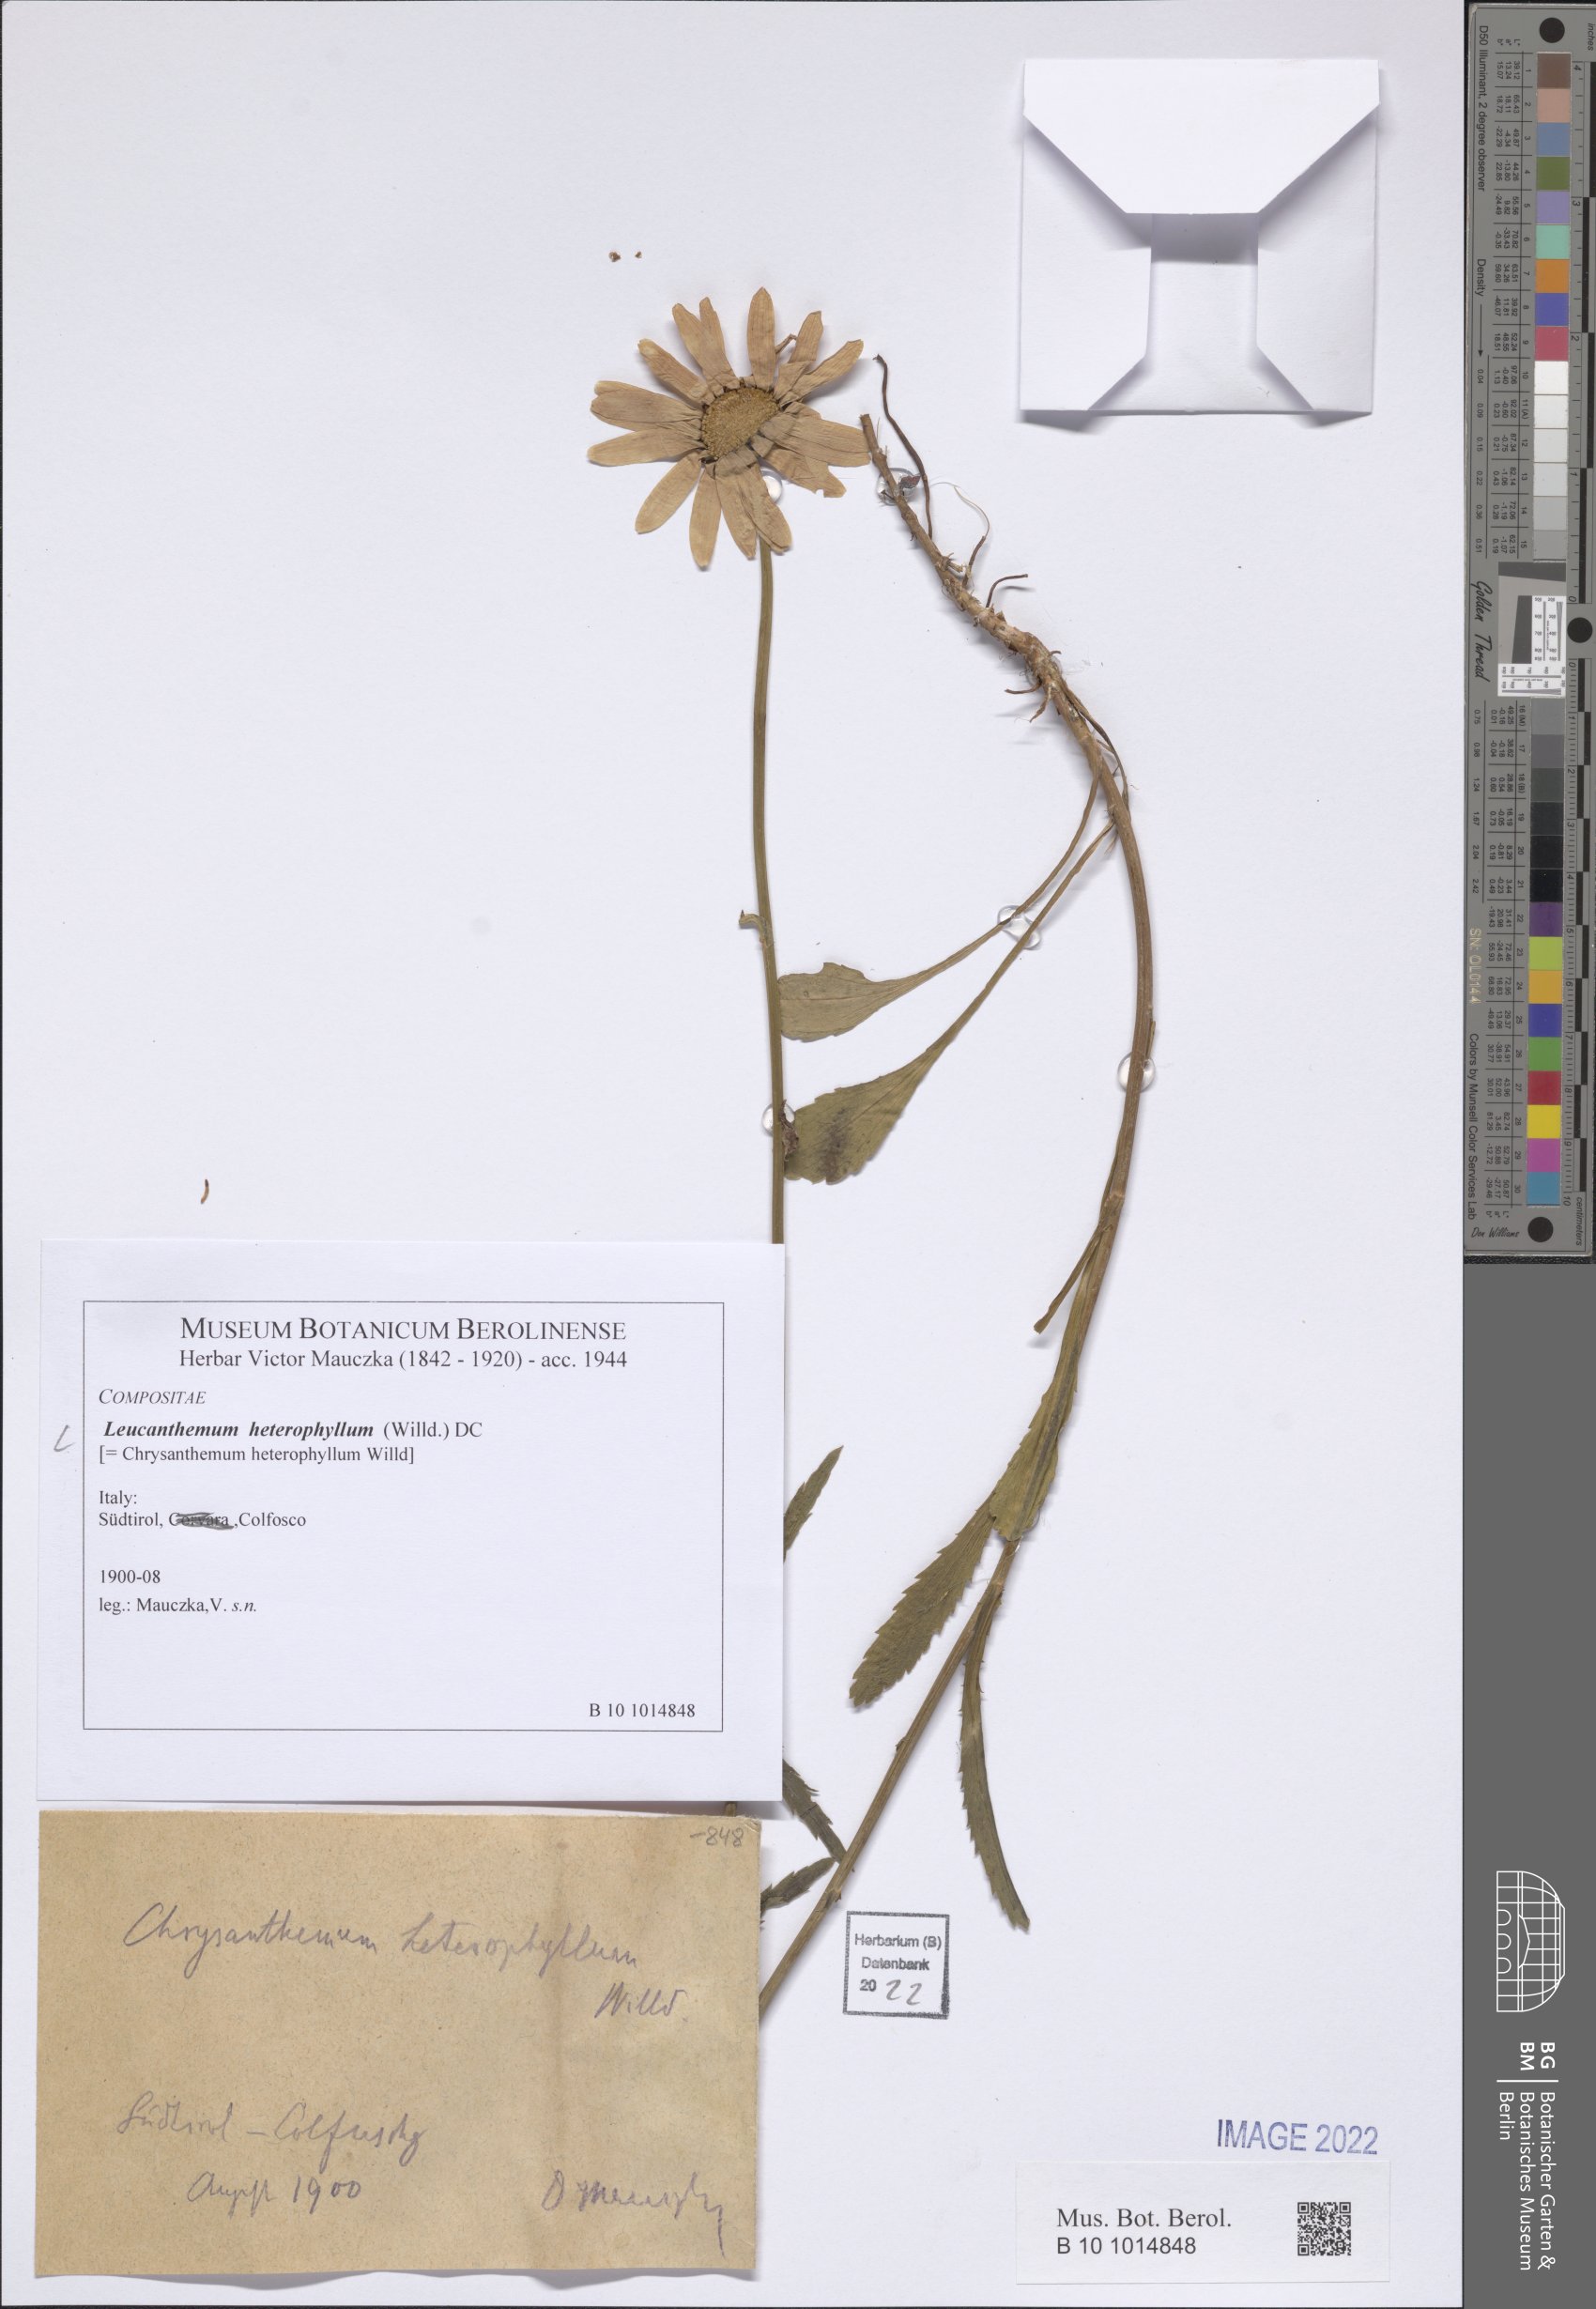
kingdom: Plantae
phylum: Tracheophyta
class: Magnoliopsida
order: Asterales
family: Asteraceae
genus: Leucanthemum
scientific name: Leucanthemum heterophyllum
